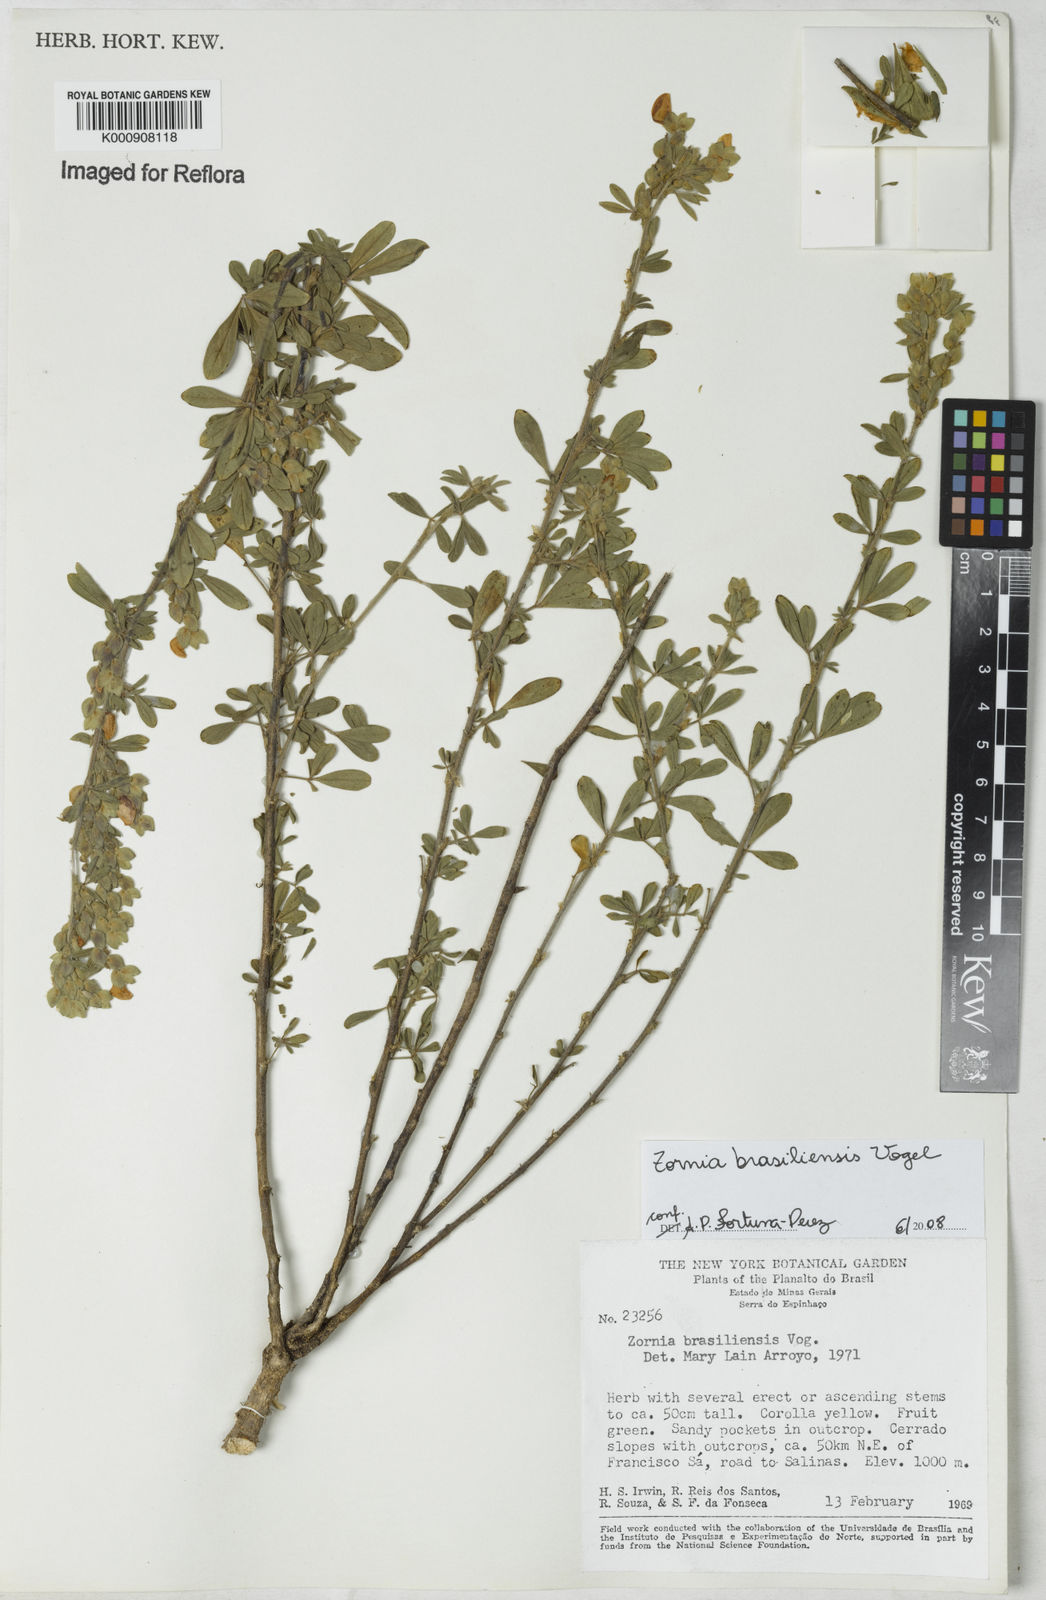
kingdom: Plantae
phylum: Tracheophyta
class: Magnoliopsida
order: Fabales
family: Fabaceae
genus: Zornia
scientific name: Zornia brasiliensis
